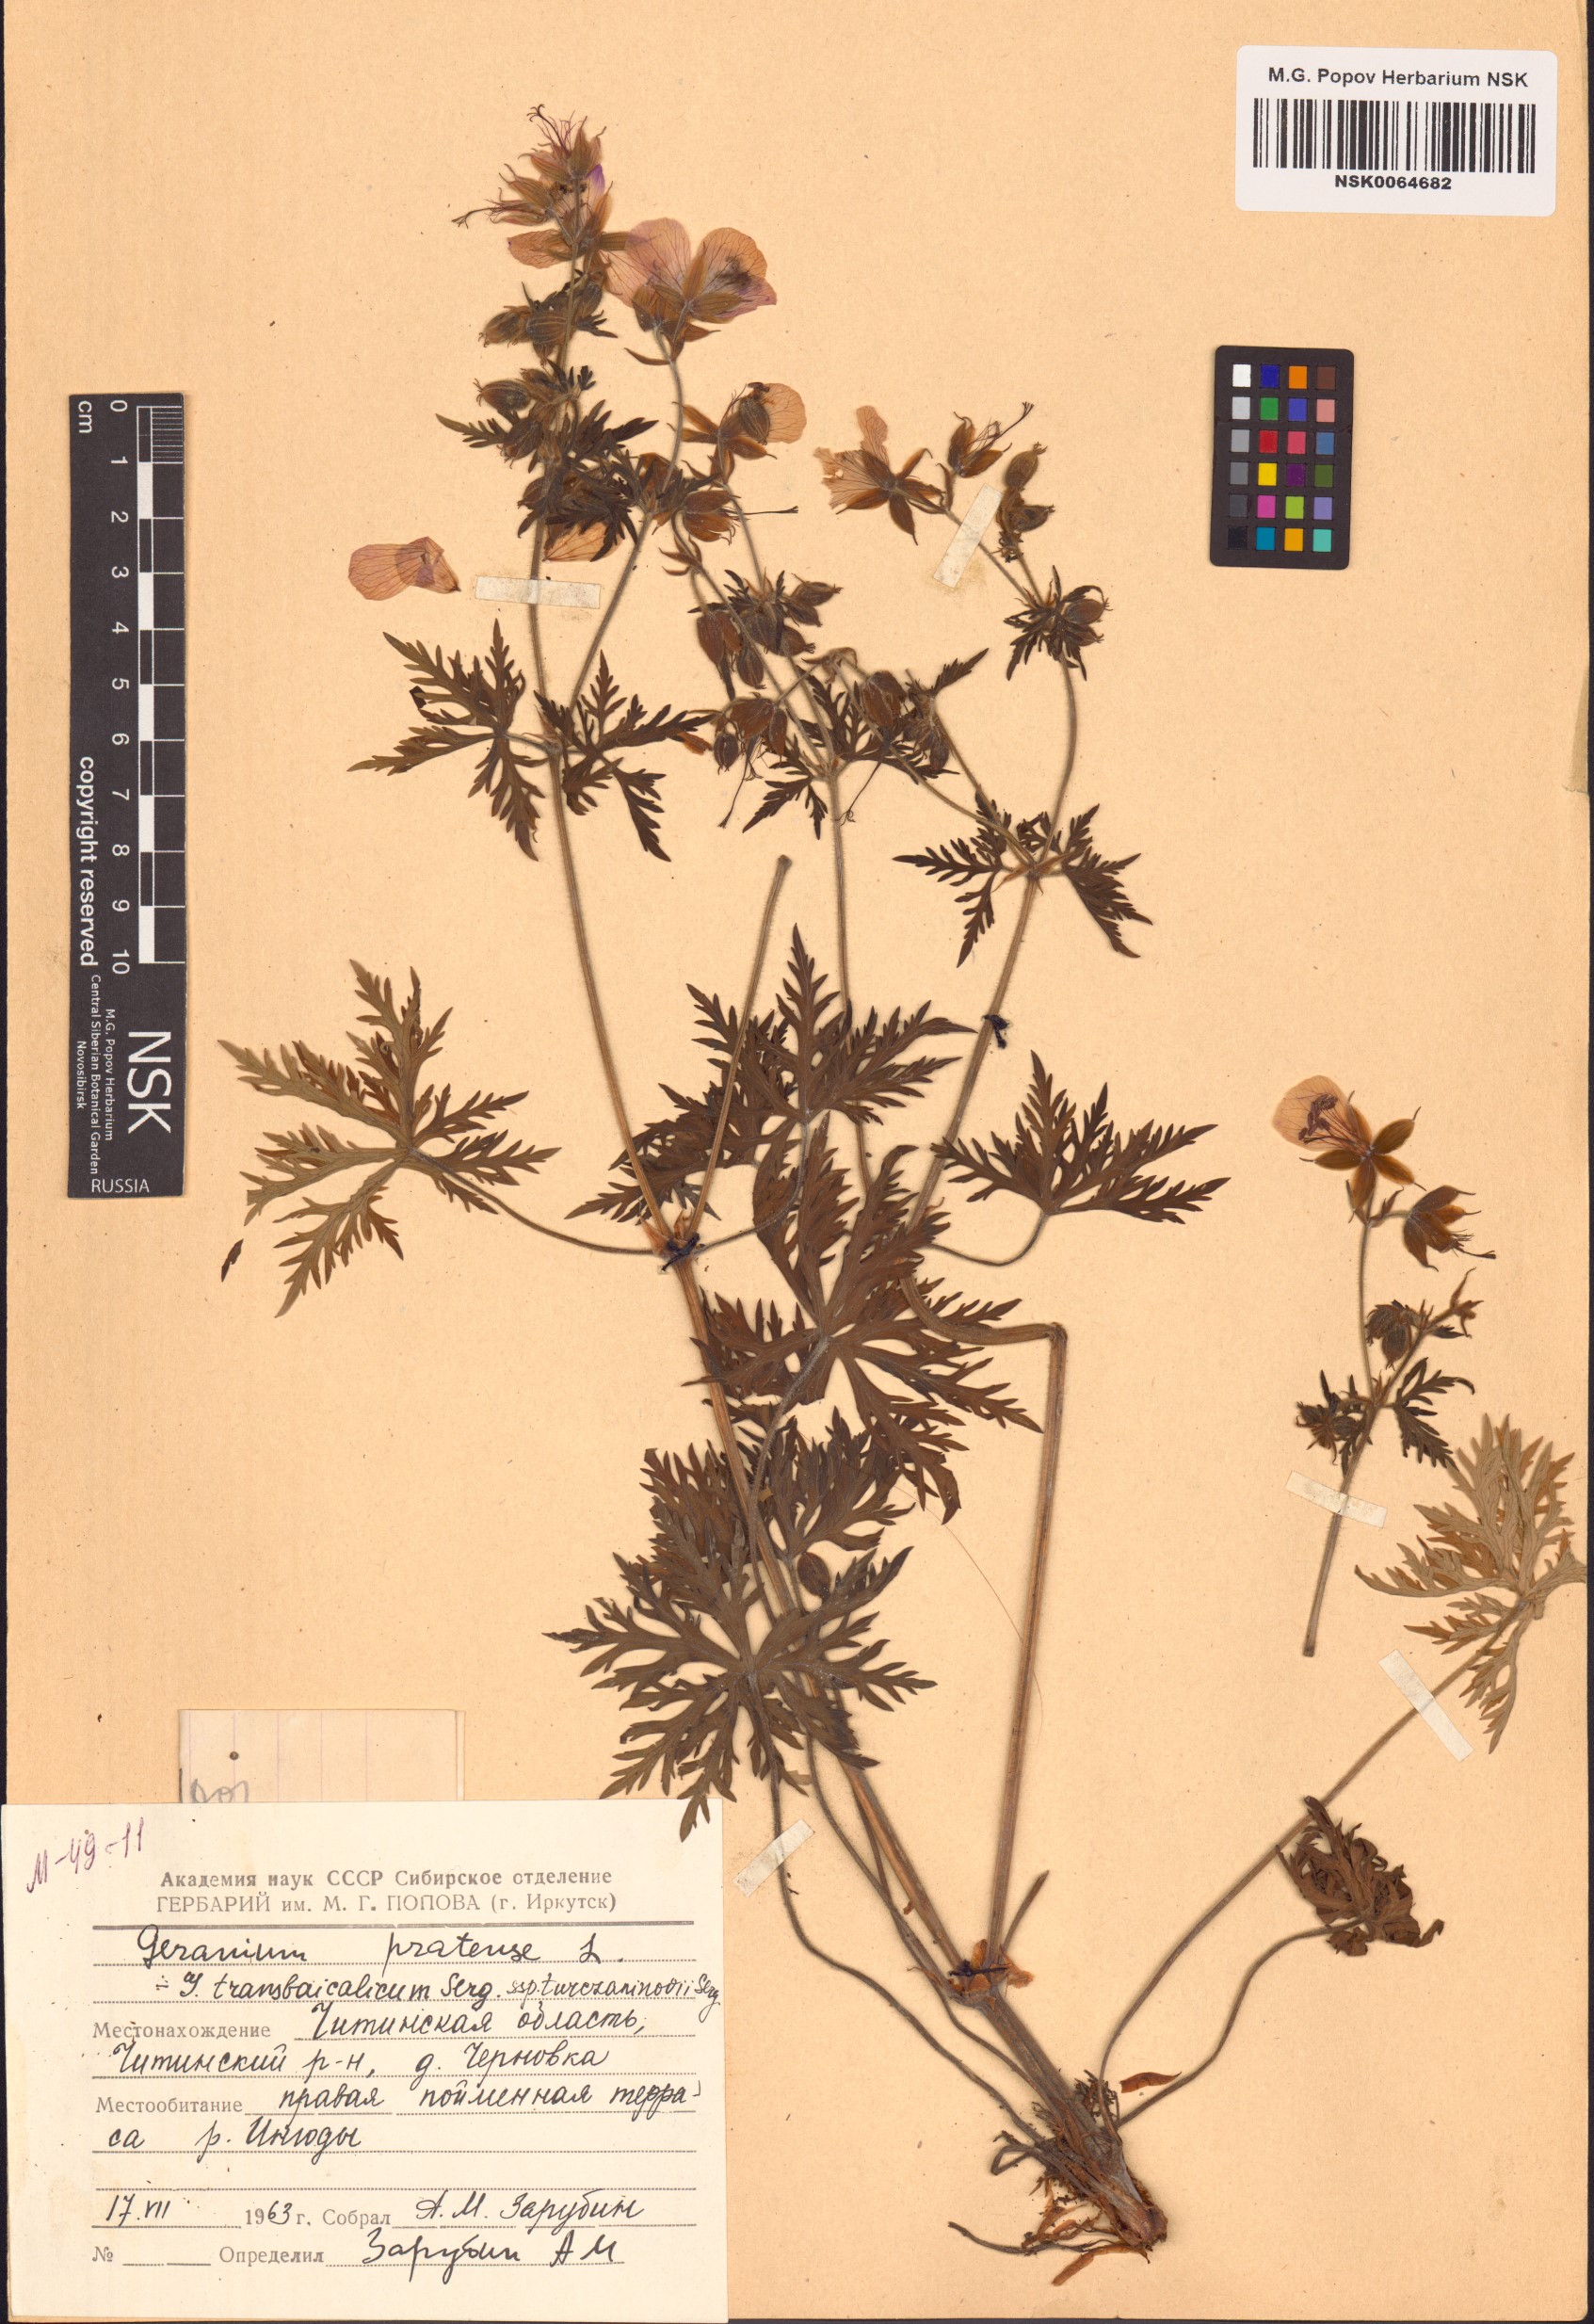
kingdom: Plantae
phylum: Tracheophyta
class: Magnoliopsida
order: Geraniales
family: Geraniaceae
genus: Geranium
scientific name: Geranium pratense
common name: Meadow crane's-bill
